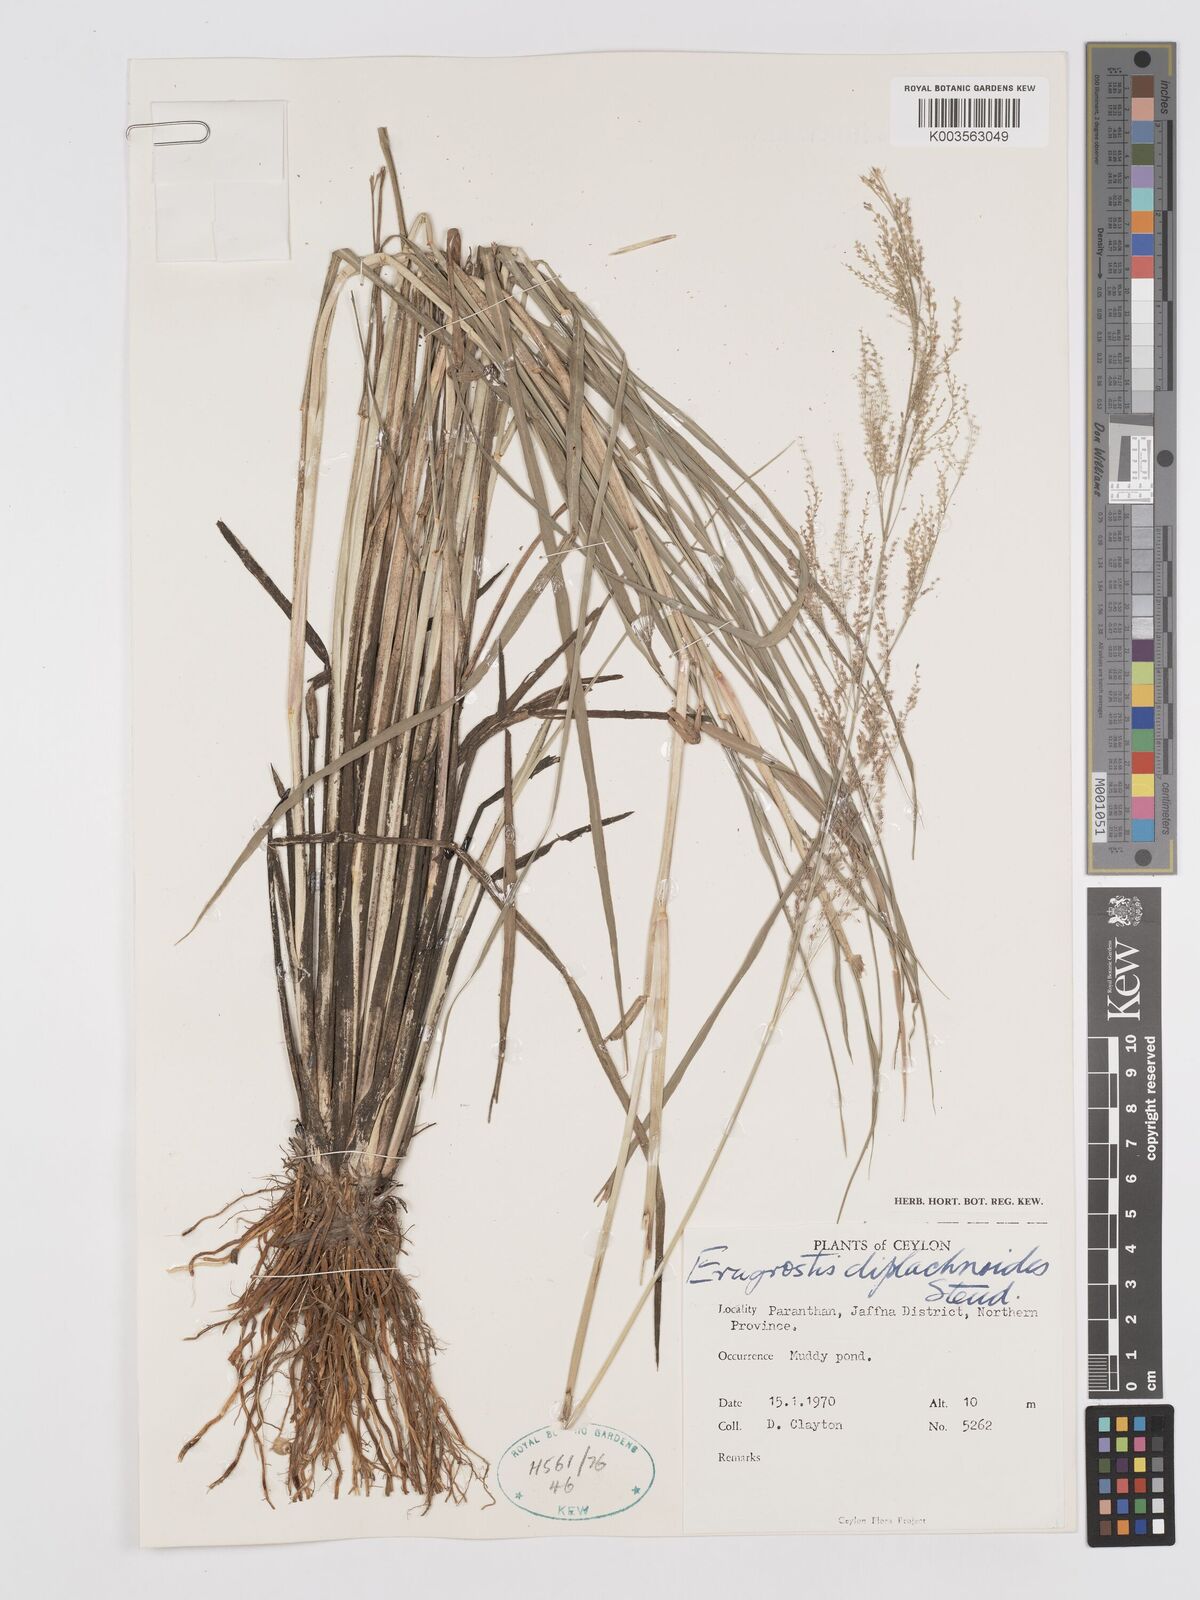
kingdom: Plantae
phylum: Tracheophyta
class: Liliopsida
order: Poales
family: Poaceae
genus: Eragrostis
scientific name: Eragrostis japonica
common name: Pond lovegrass
